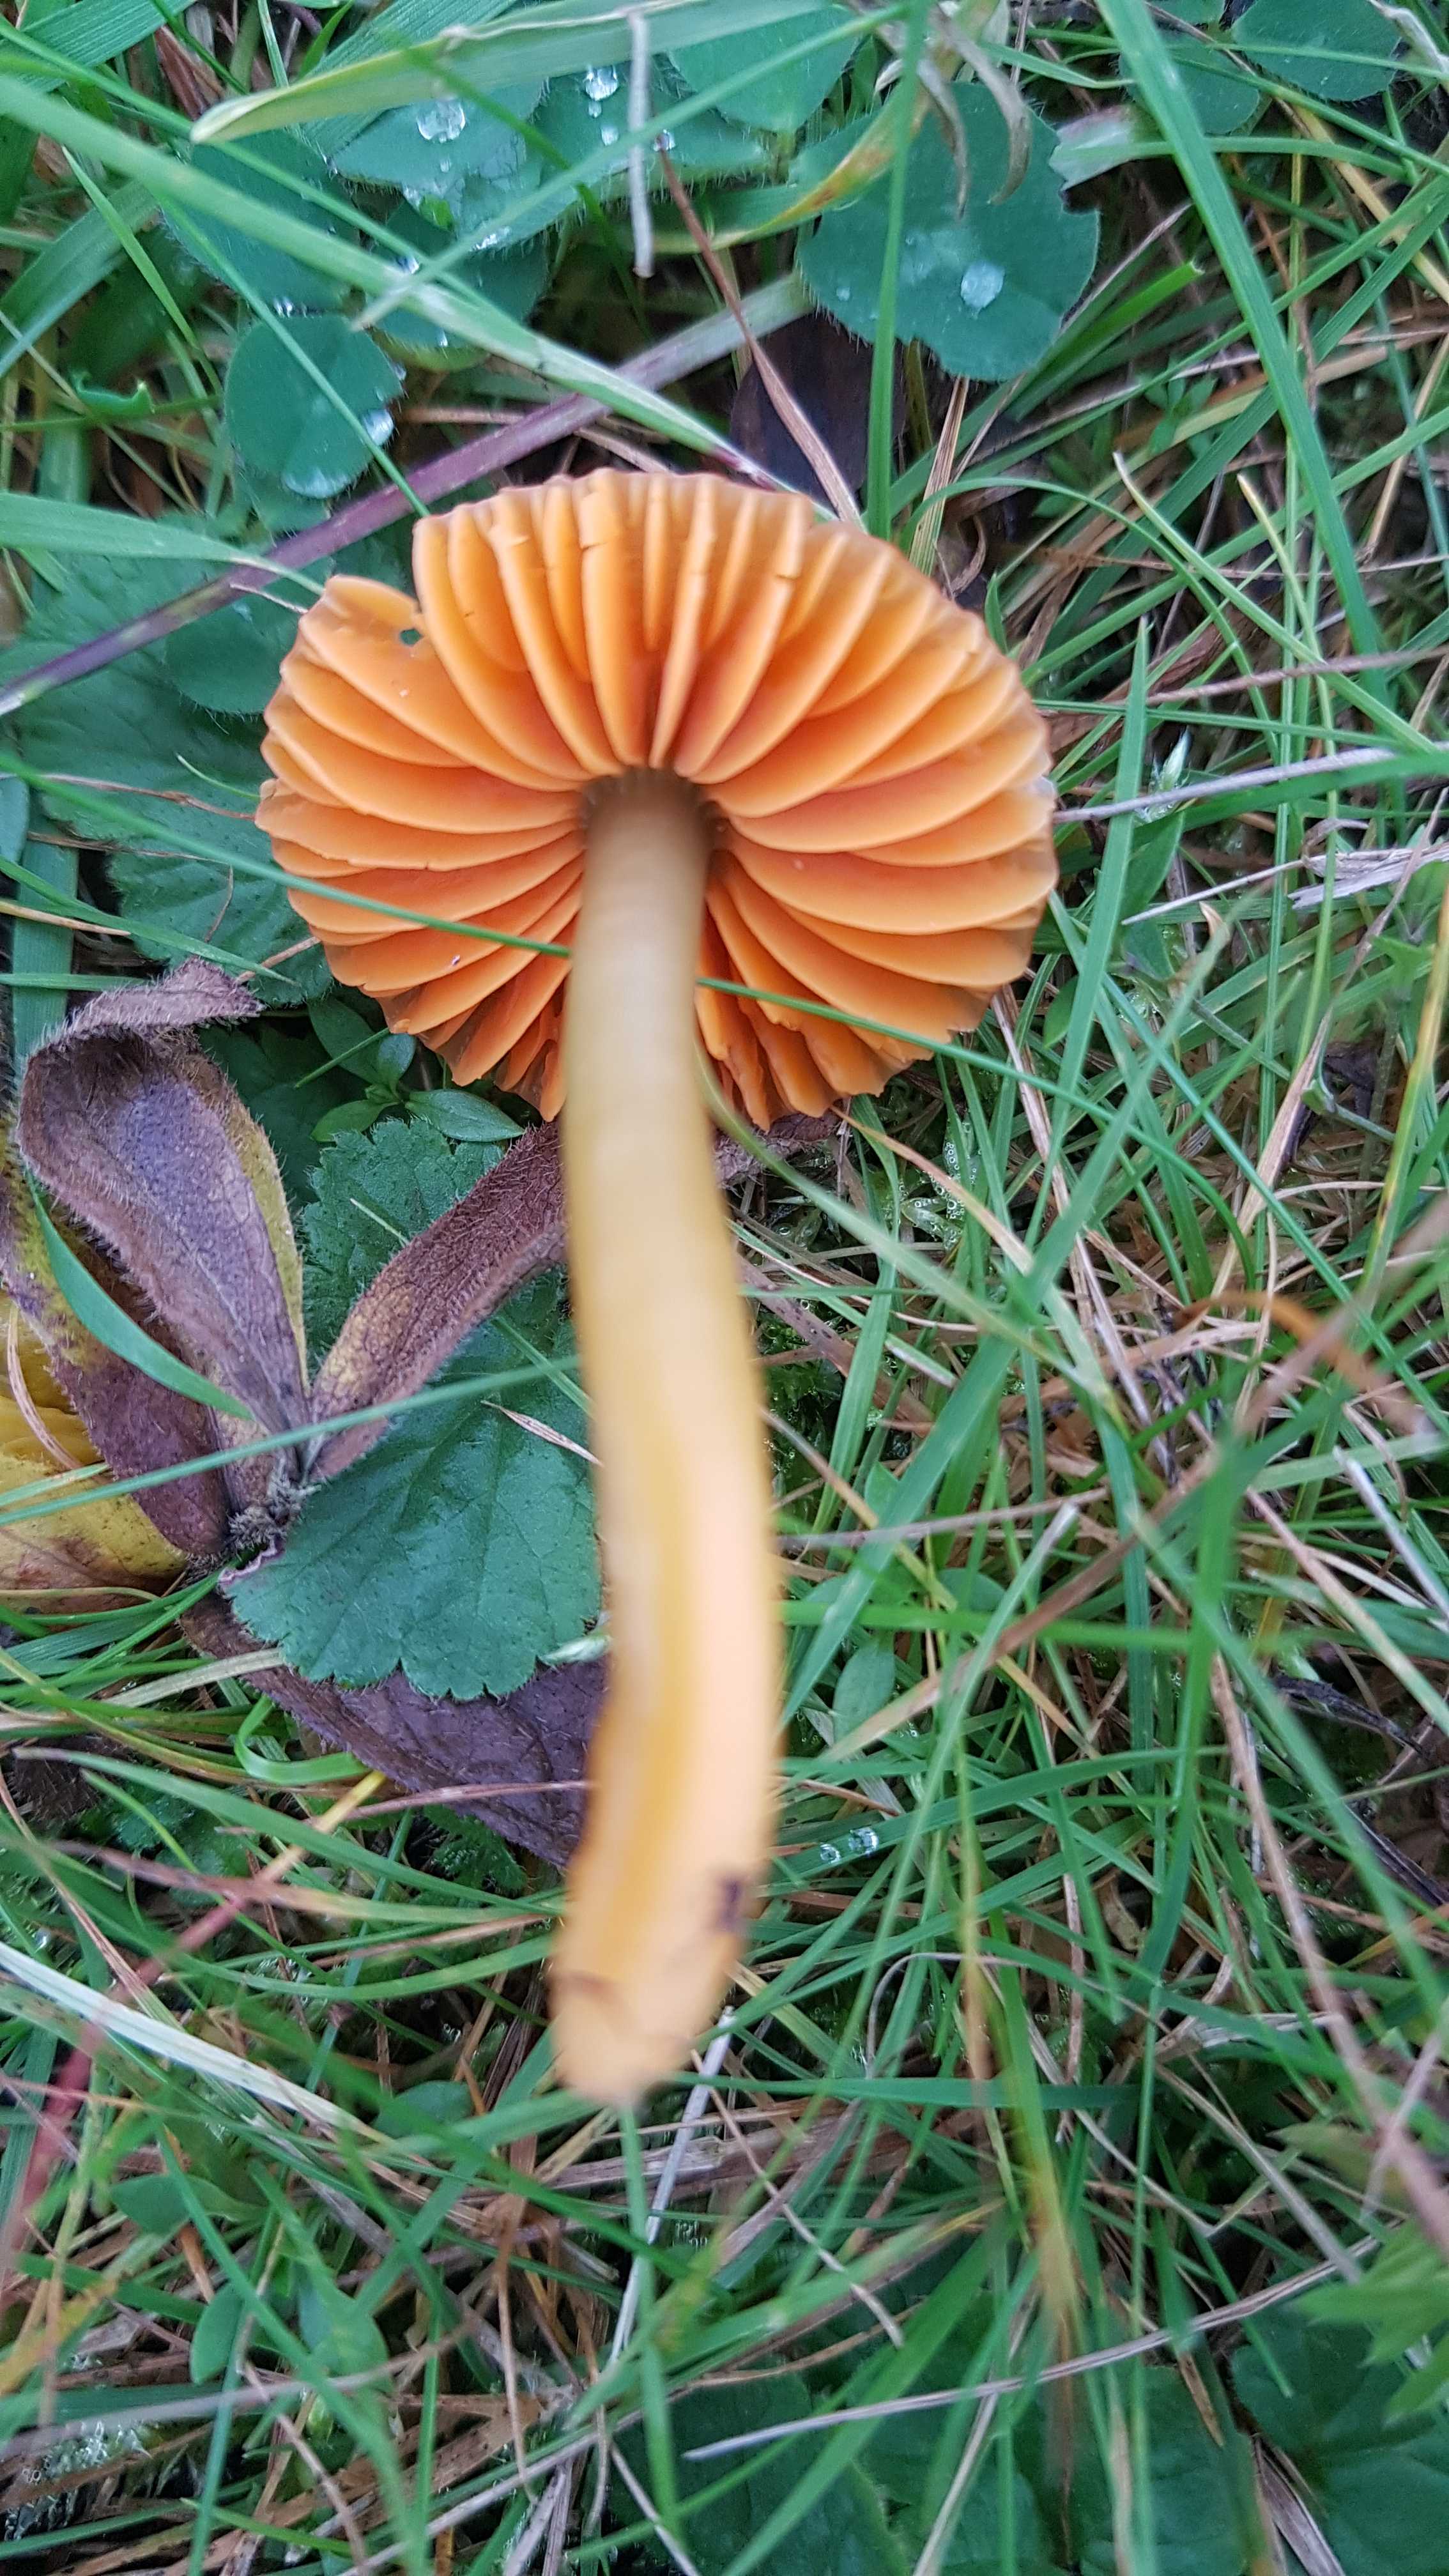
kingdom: Fungi
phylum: Basidiomycota
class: Agaricomycetes
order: Agaricales
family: Hygrophoraceae
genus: Gliophorus
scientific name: Gliophorus psittacinus
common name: papegøje-vokshat
